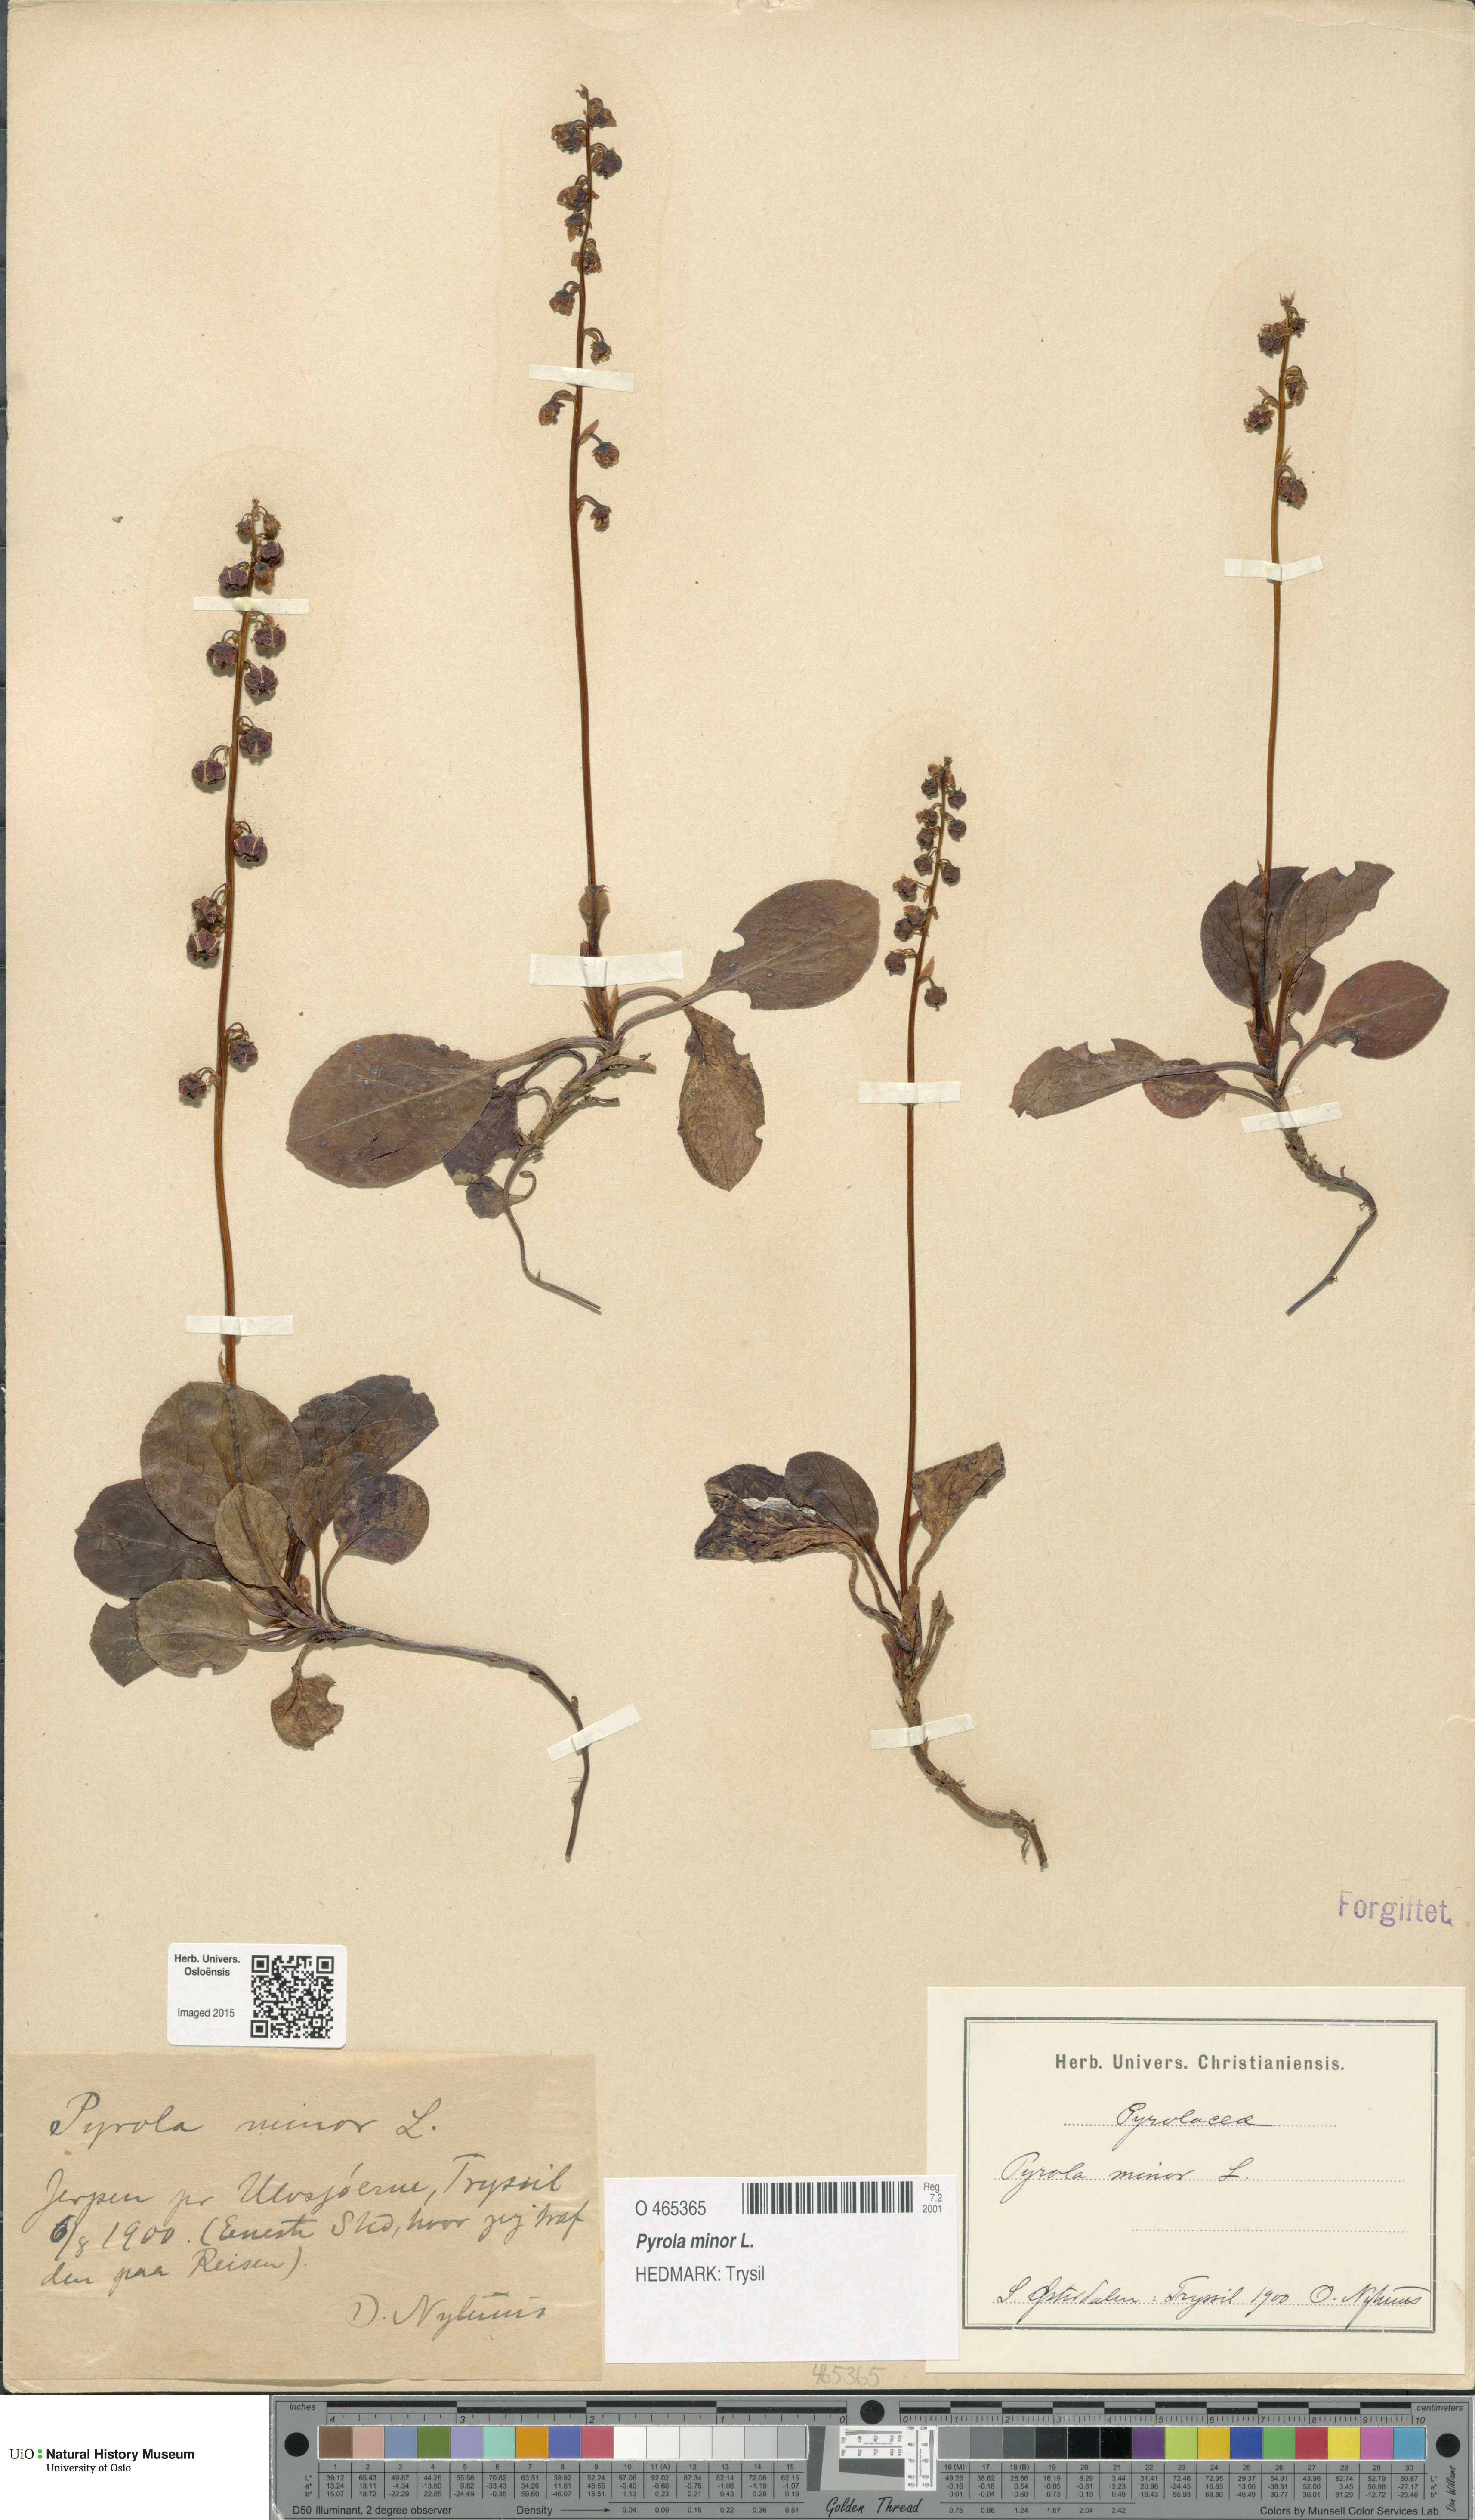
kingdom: Plantae
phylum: Tracheophyta
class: Magnoliopsida
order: Ericales
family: Ericaceae
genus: Pyrola
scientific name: Pyrola minor
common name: Common wintergreen
